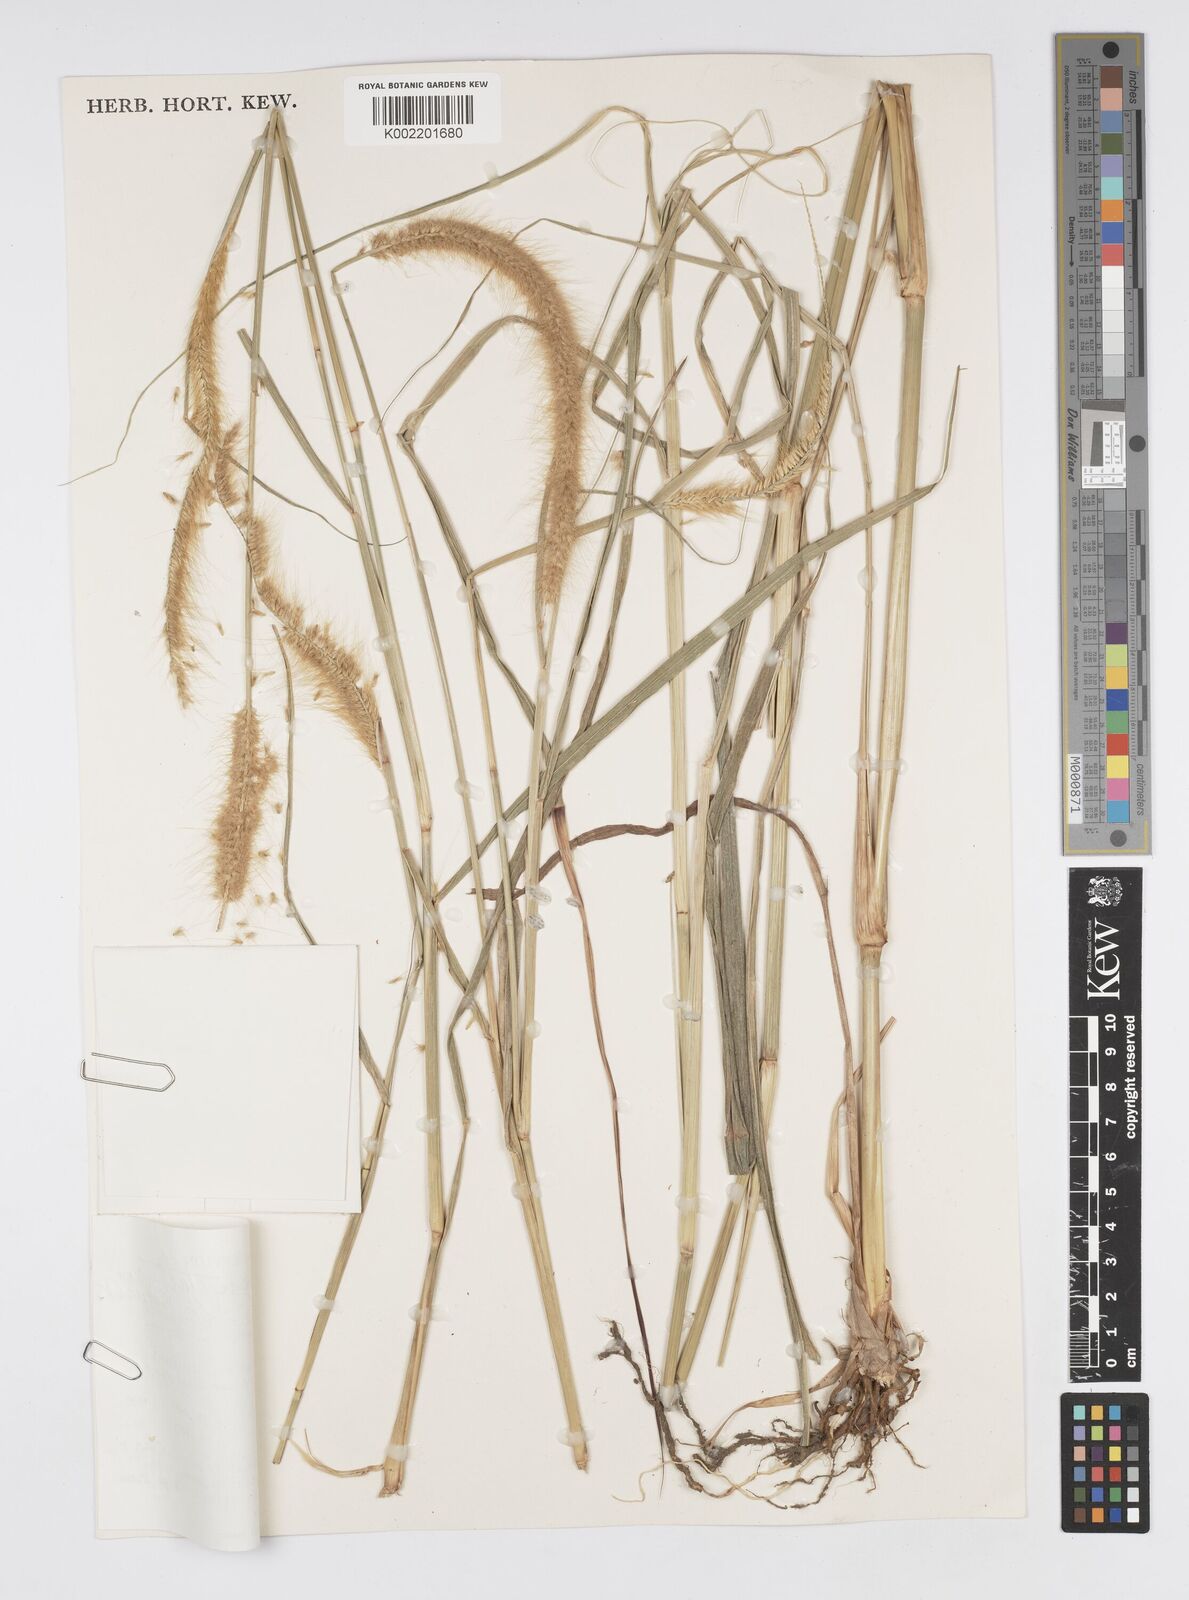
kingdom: Plantae
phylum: Tracheophyta
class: Liliopsida
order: Poales
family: Poaceae
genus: Setaria
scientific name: Setaria parviflora
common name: Knotroot bristle-grass
